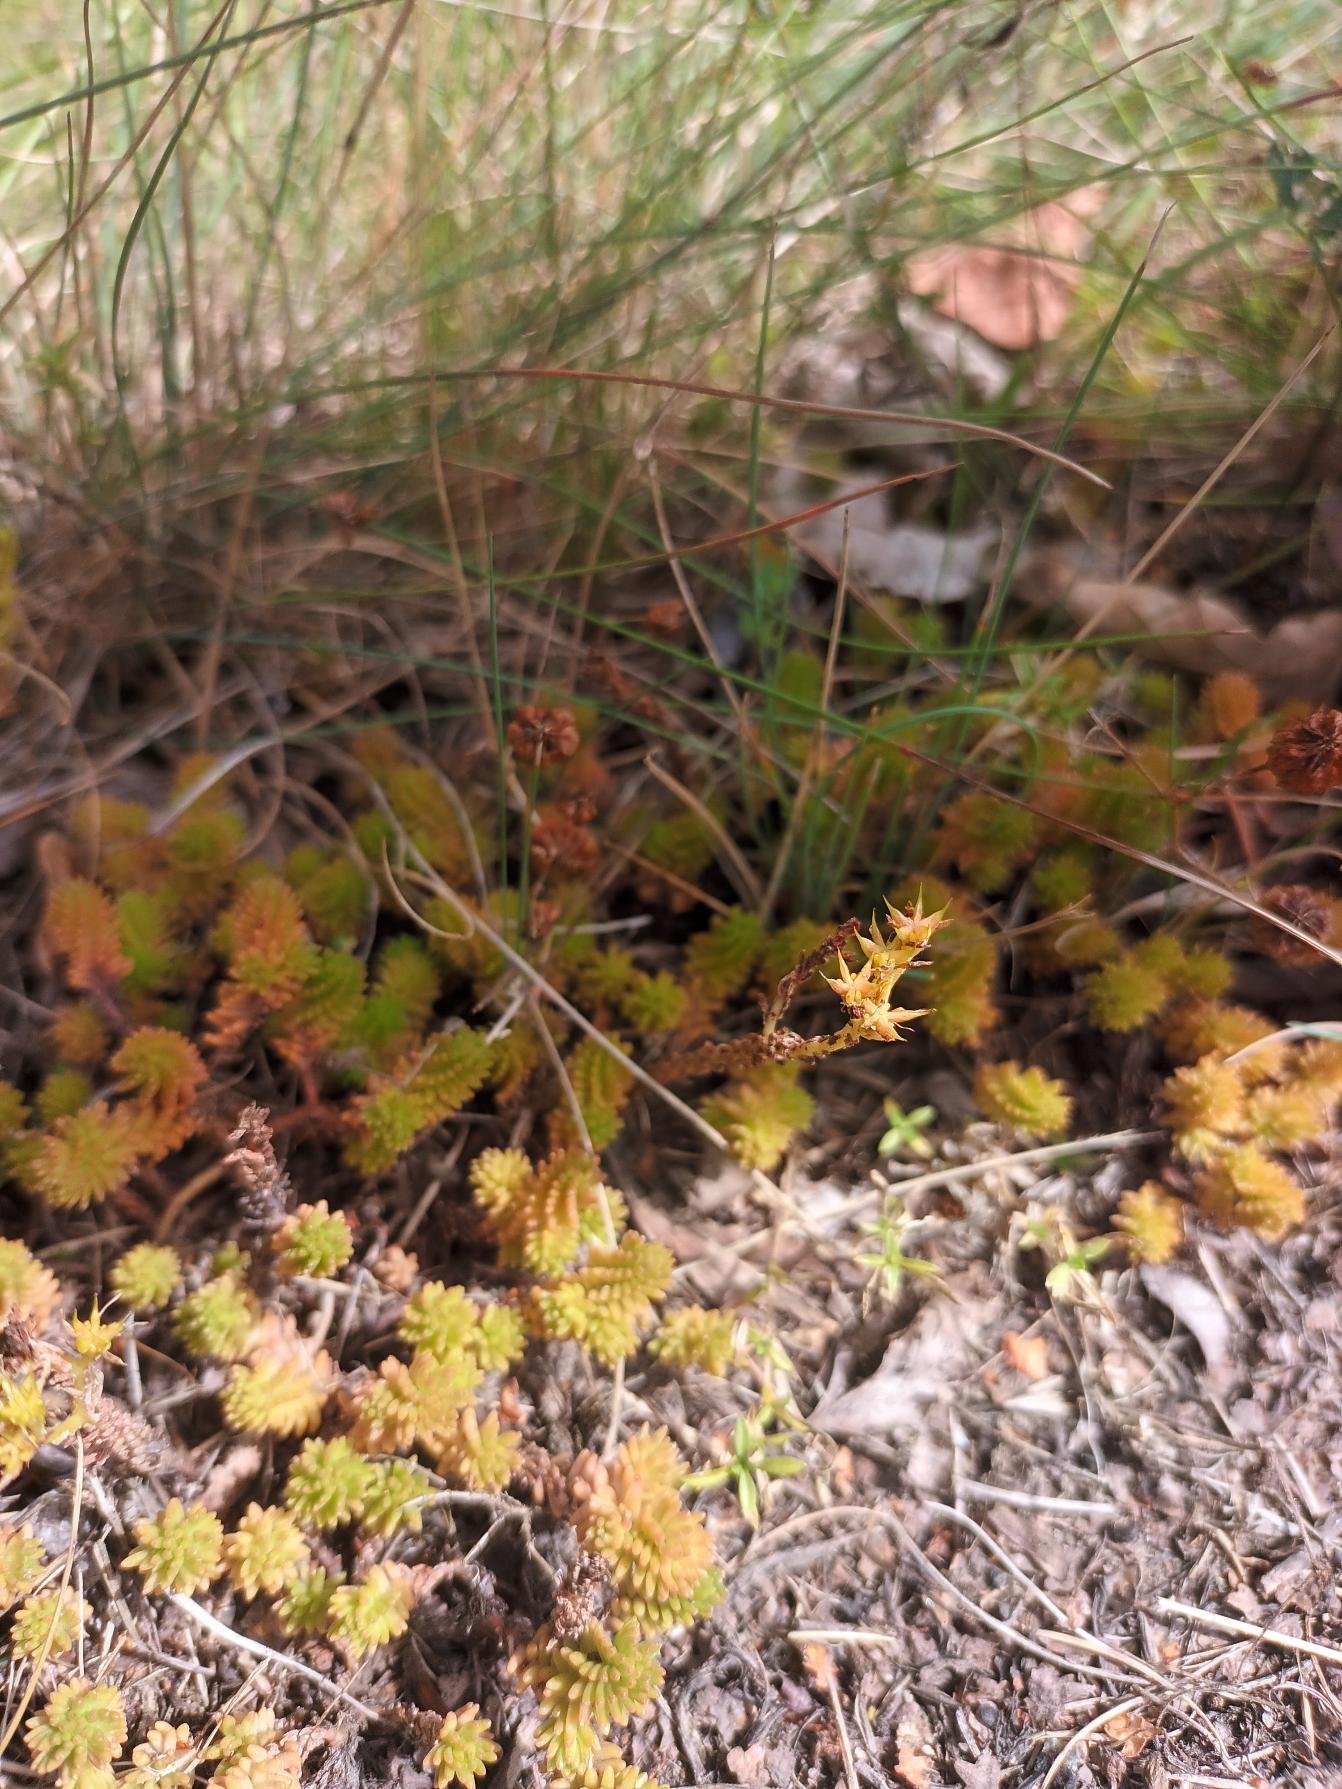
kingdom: Plantae
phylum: Tracheophyta
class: Magnoliopsida
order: Saxifragales
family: Crassulaceae
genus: Sedum
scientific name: Sedum sexangulare
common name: Seksradet stenurt
